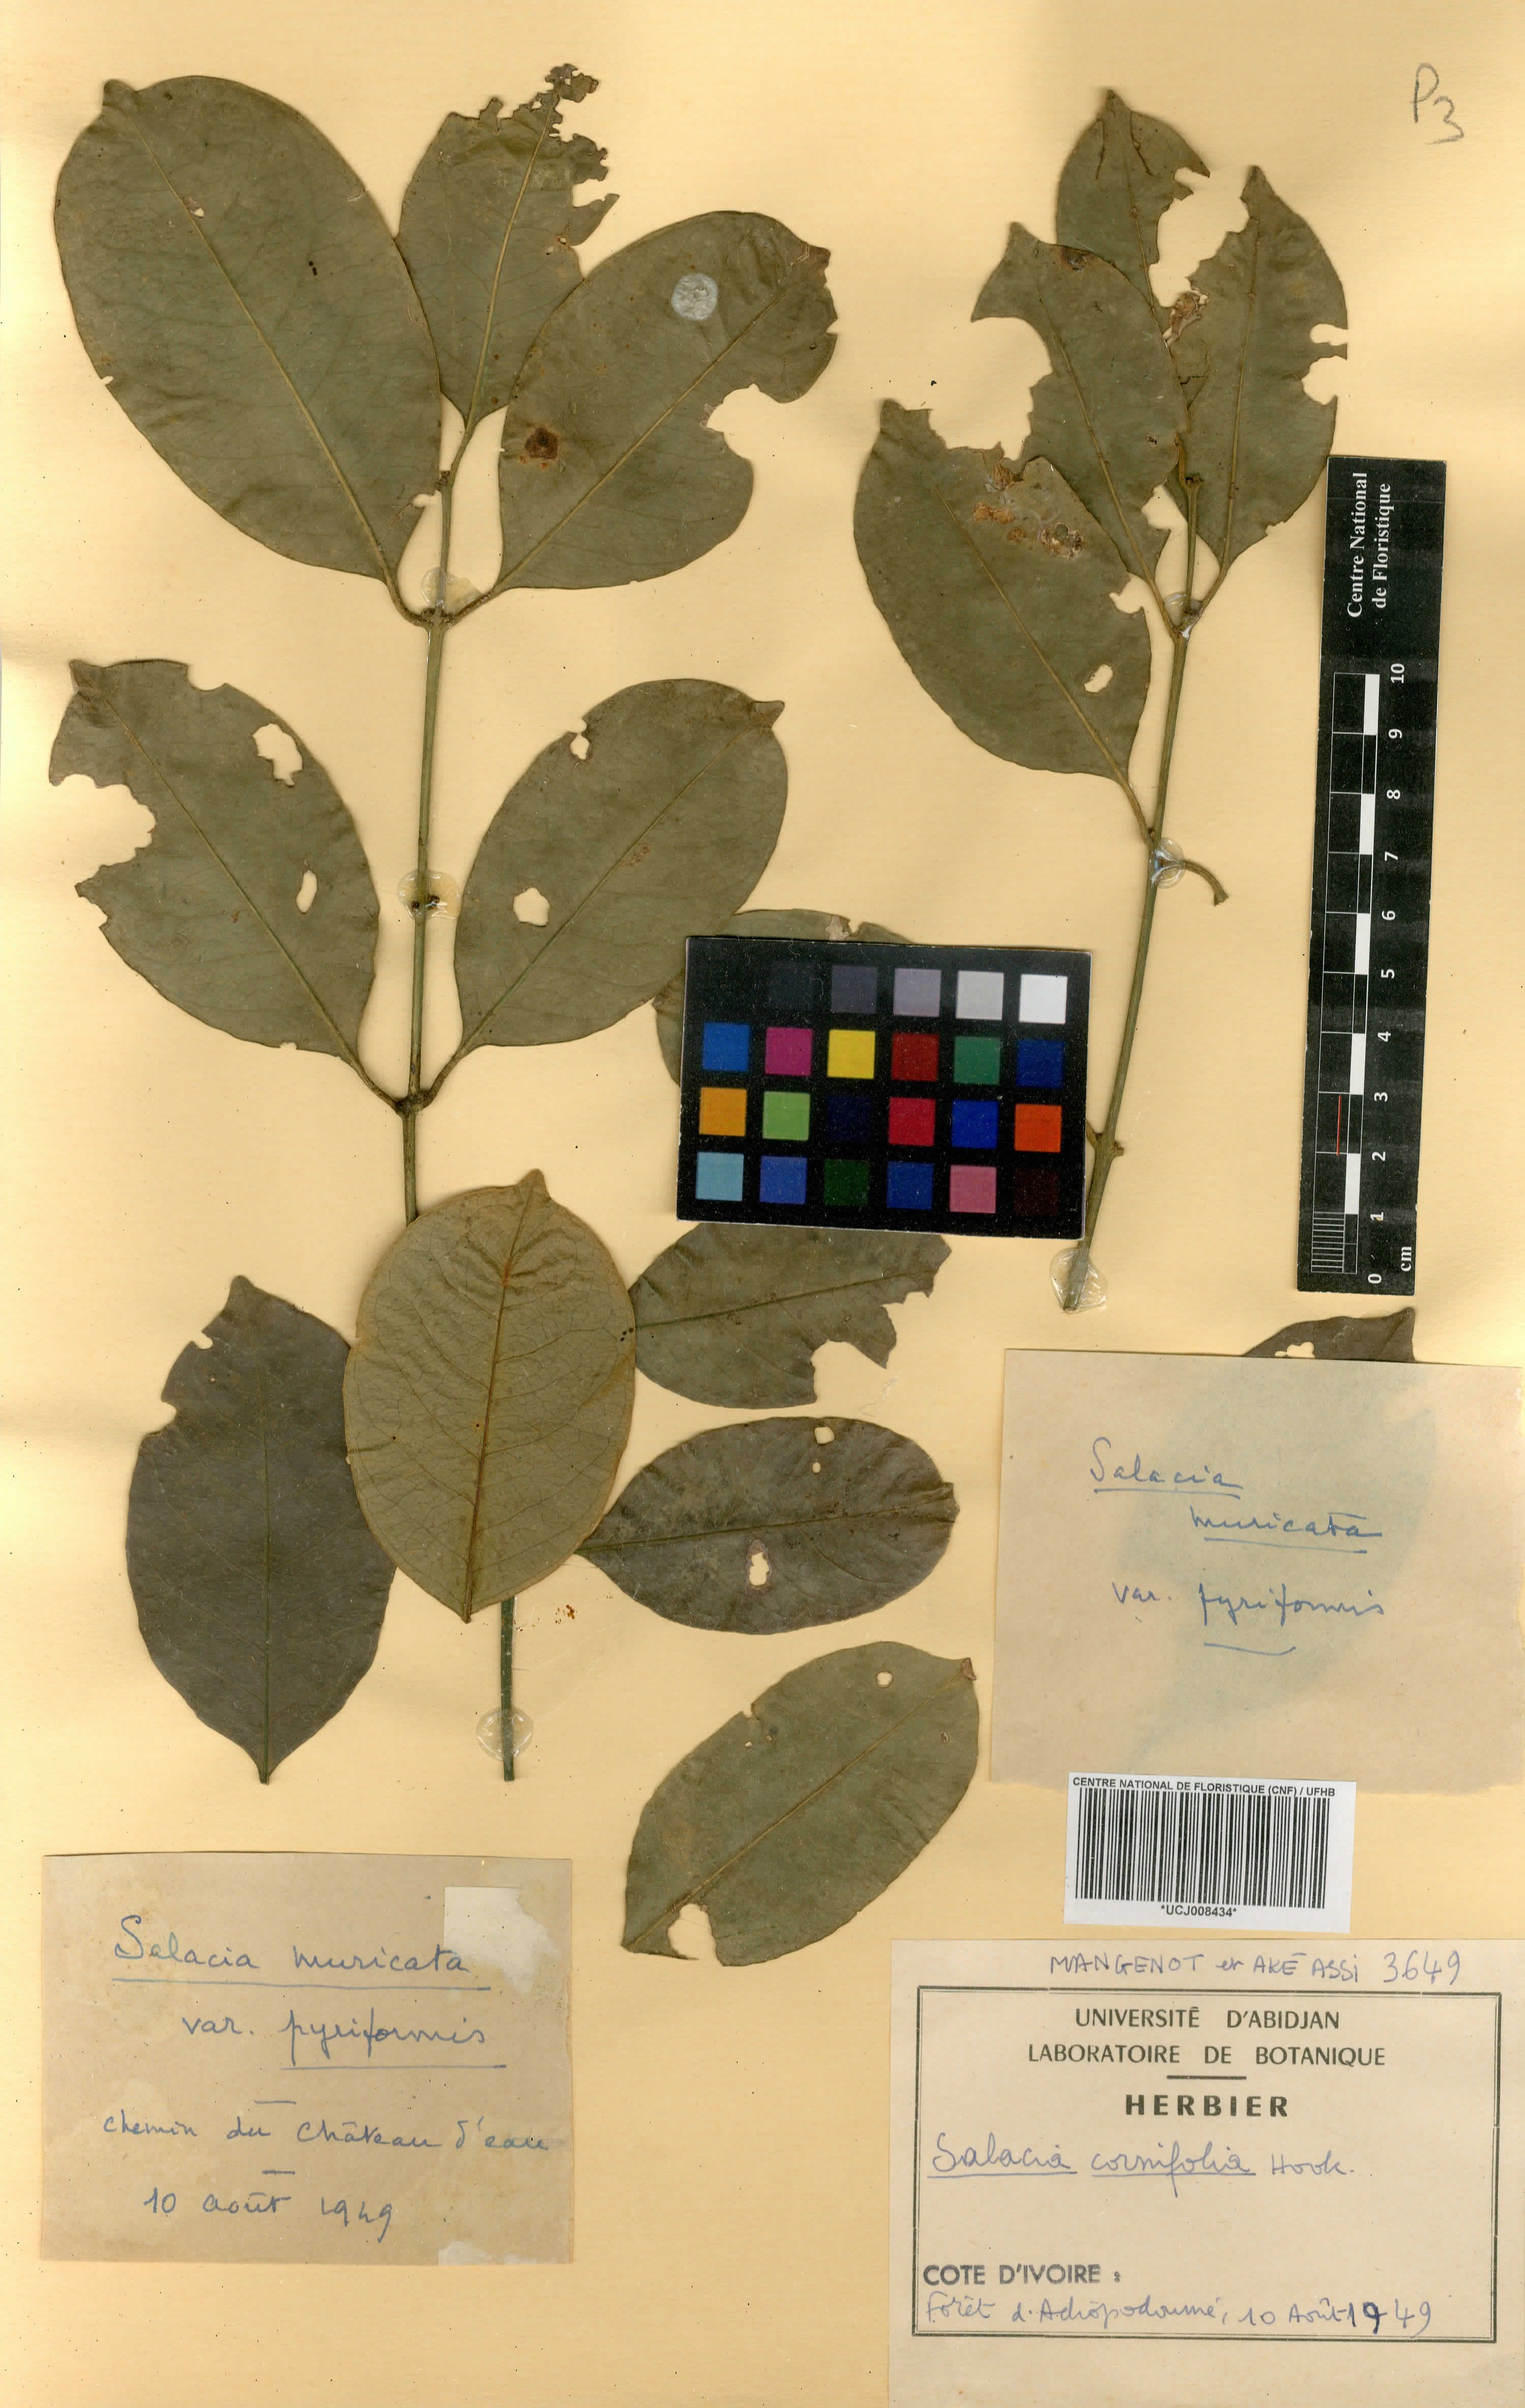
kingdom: Plantae
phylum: Tracheophyta
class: Magnoliopsida
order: Celastrales
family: Celastraceae
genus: Salacia
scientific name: Salacia cornifolia
